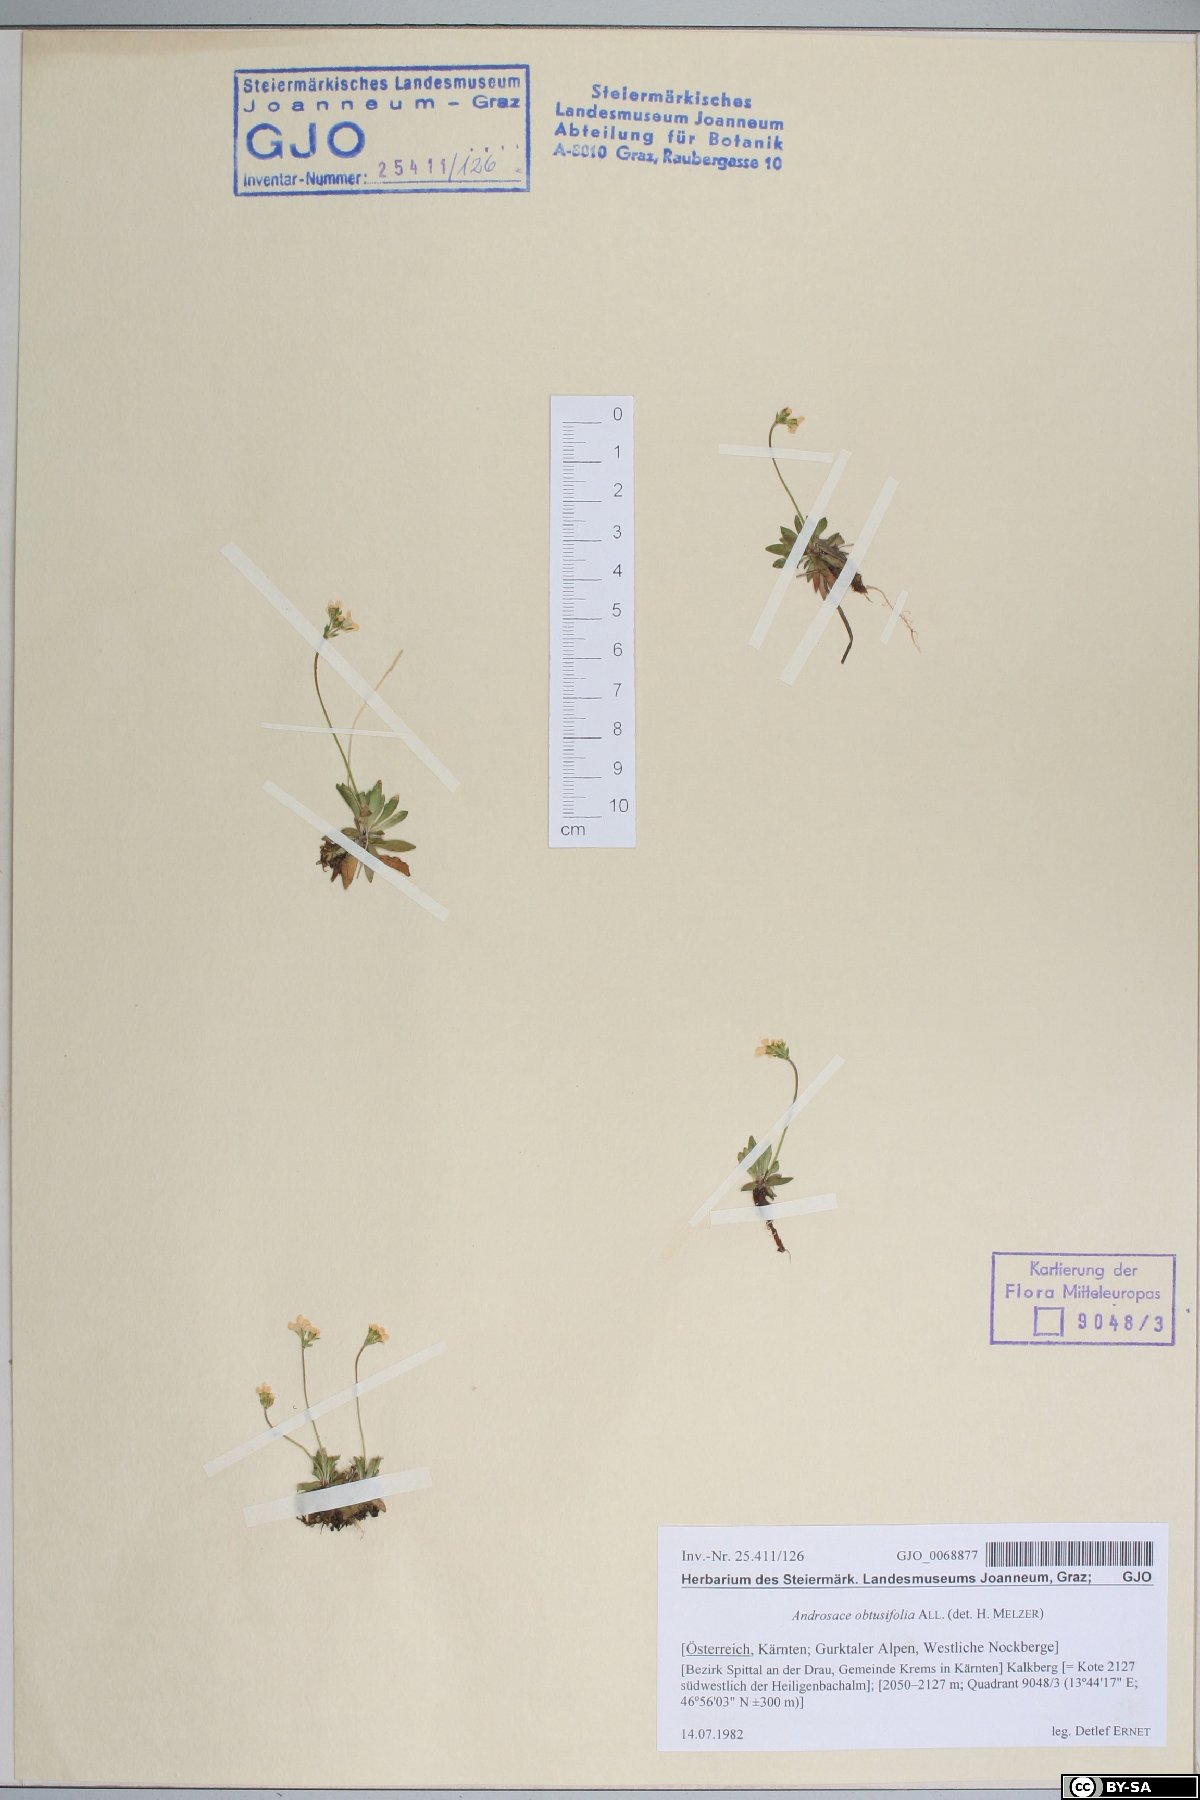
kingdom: Plantae
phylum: Tracheophyta
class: Magnoliopsida
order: Ericales
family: Primulaceae
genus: Androsace
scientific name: Androsace obtusifolia
